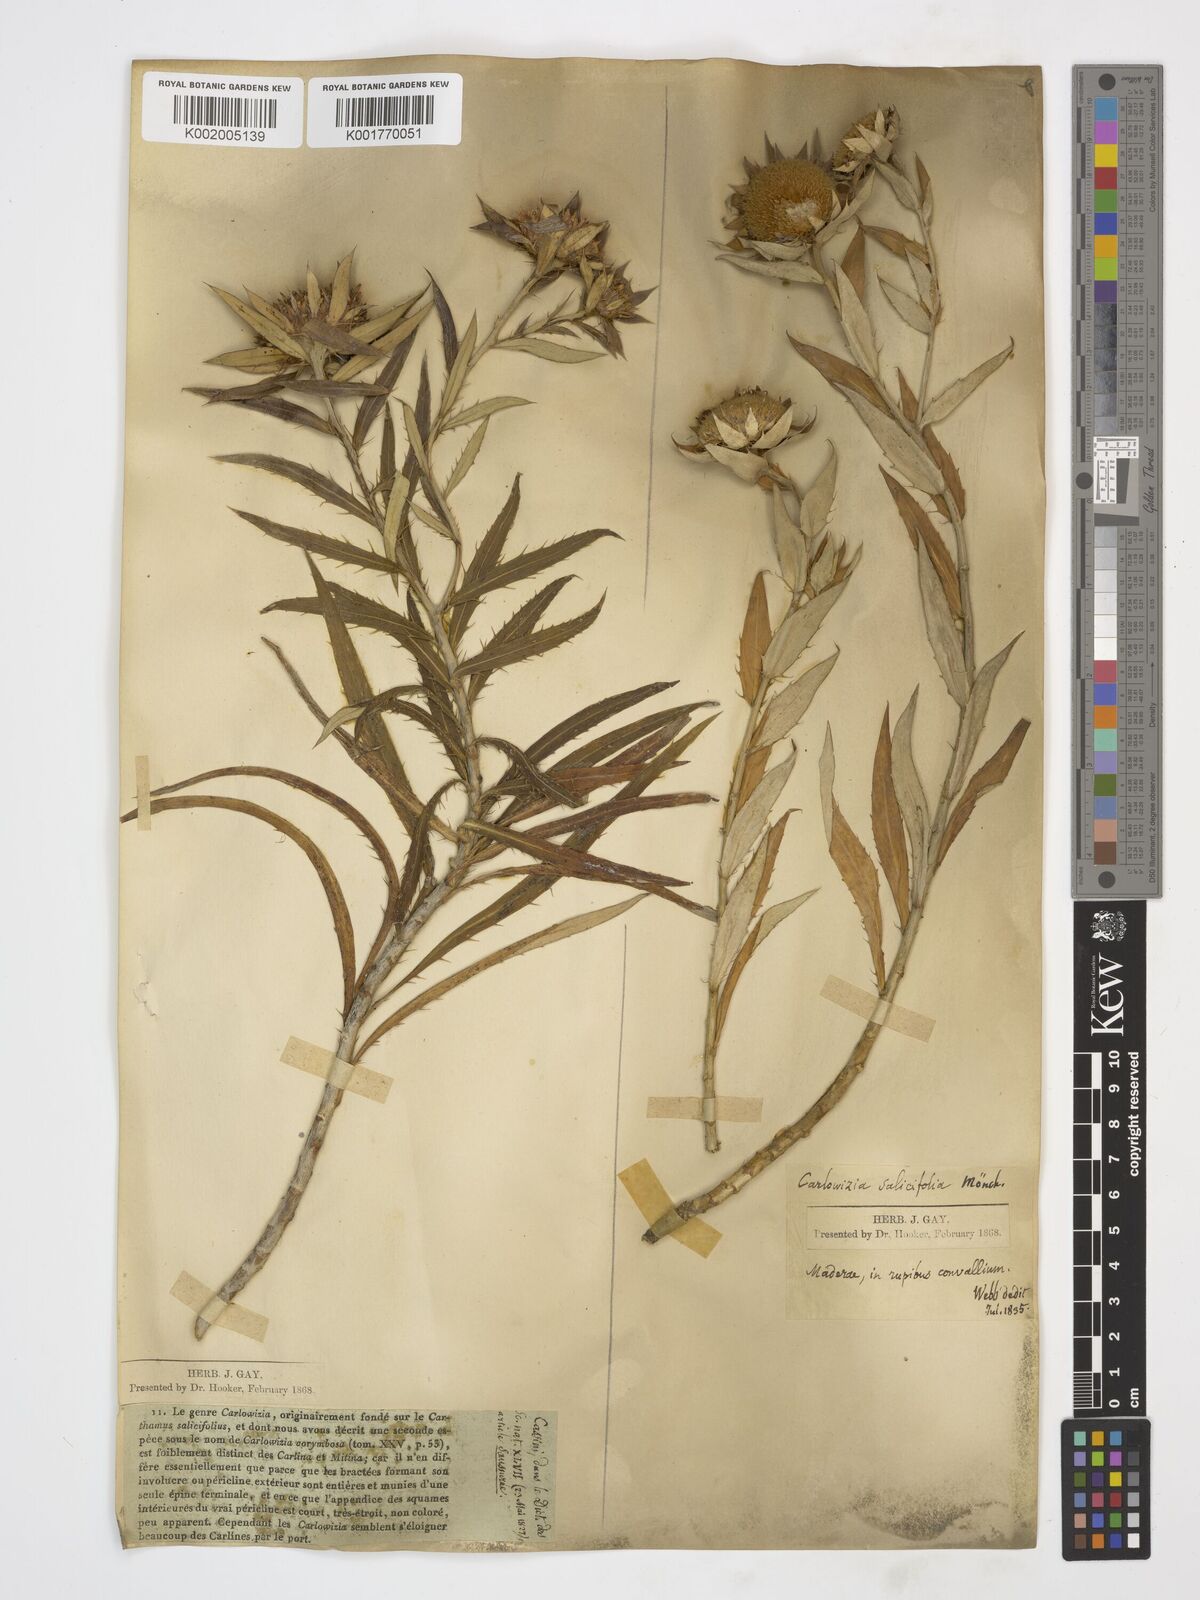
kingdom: Plantae
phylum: Tracheophyta
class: Magnoliopsida
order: Asterales
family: Asteraceae
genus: Carlina
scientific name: Carlina salicifolia
